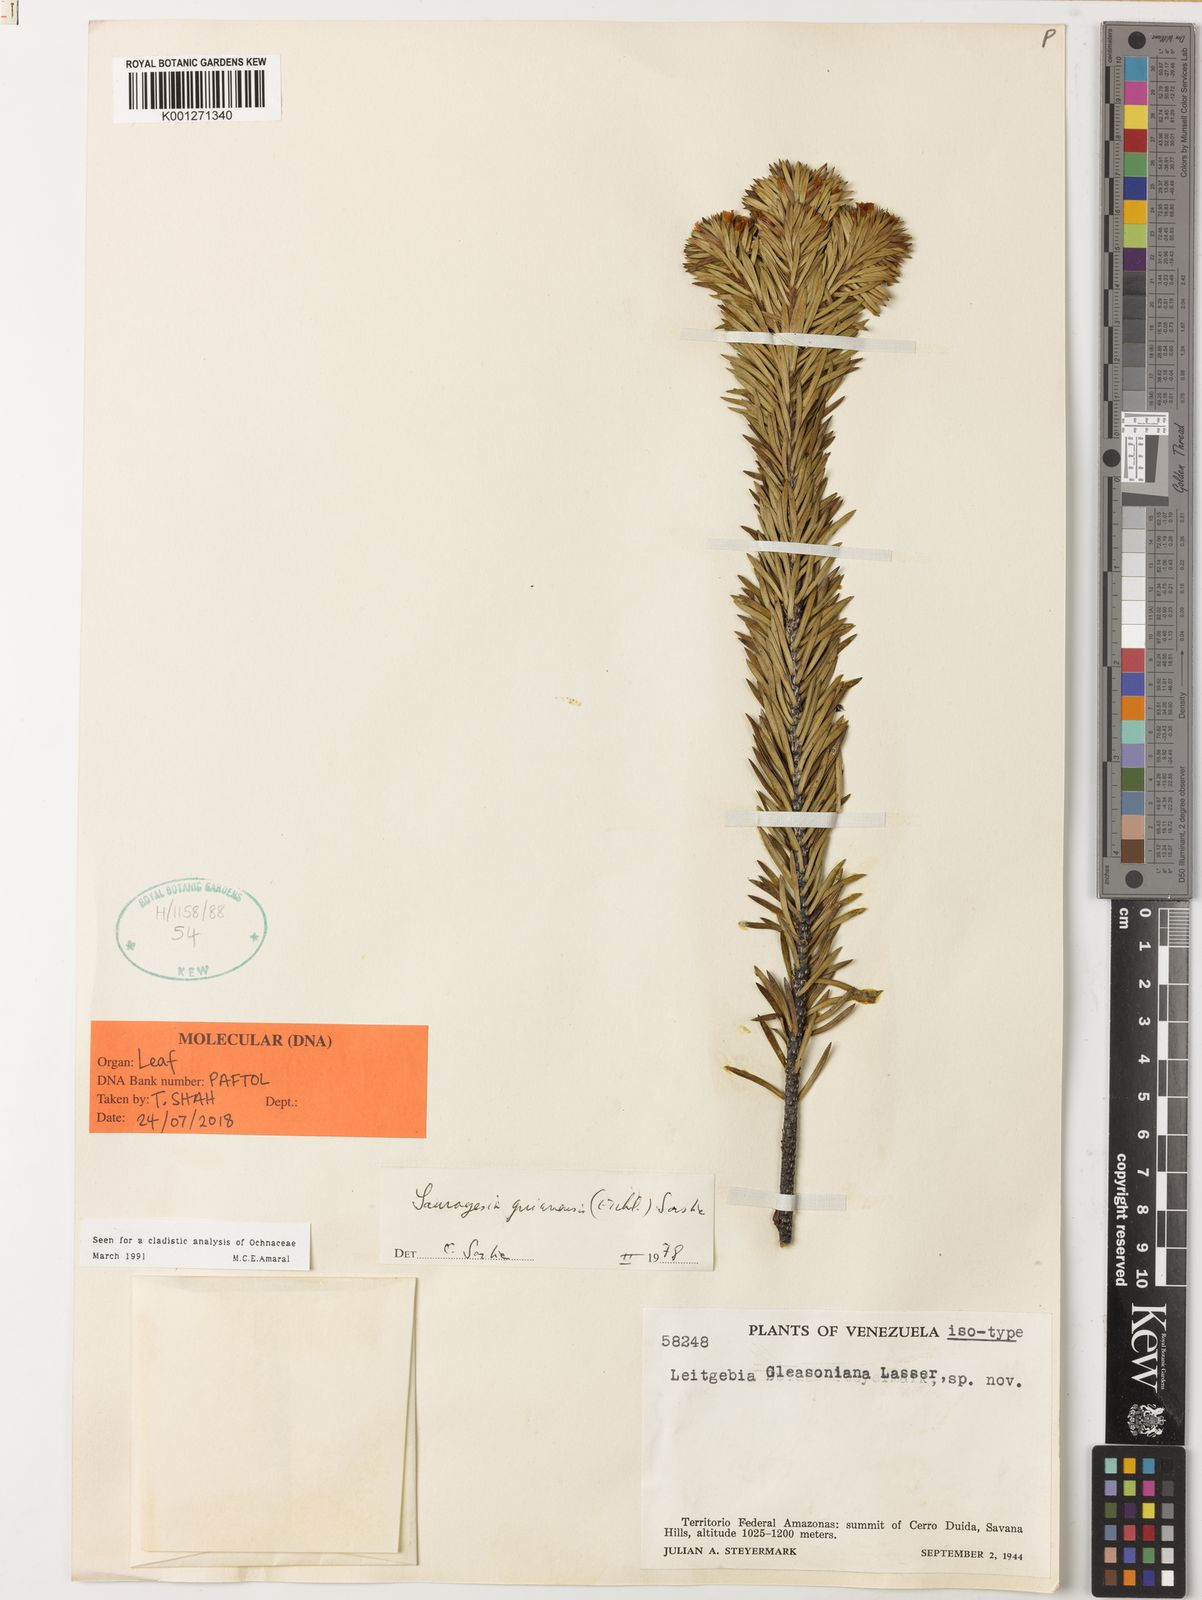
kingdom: Plantae
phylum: Tracheophyta
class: Magnoliopsida
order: Malpighiales
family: Ochnaceae
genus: Sauvagesia
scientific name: Sauvagesia guianensis
